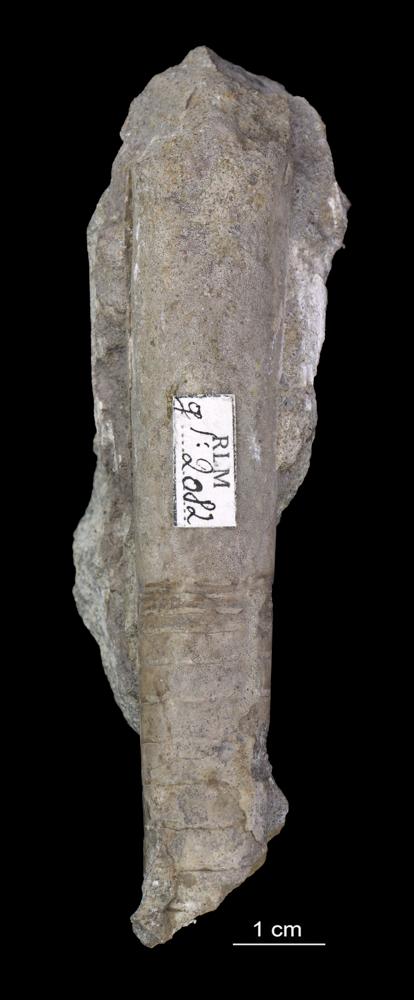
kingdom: Animalia
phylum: Mollusca
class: Cephalopoda
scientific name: Cephalopoda
